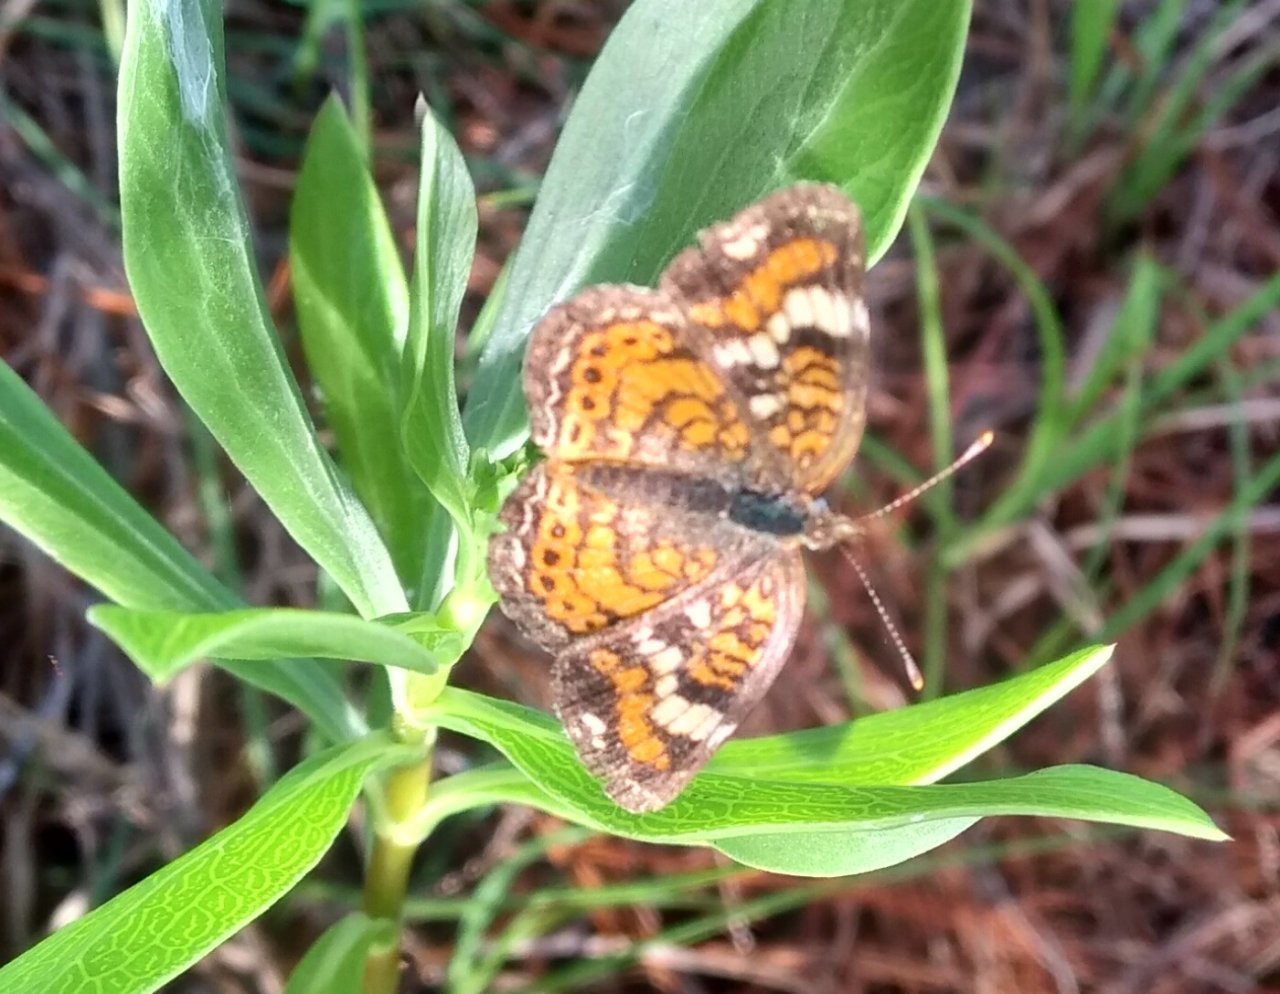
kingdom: Animalia
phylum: Arthropoda
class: Insecta
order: Lepidoptera
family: Nymphalidae
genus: Phyciodes
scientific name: Phyciodes phaon
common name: Phaon Crescent
